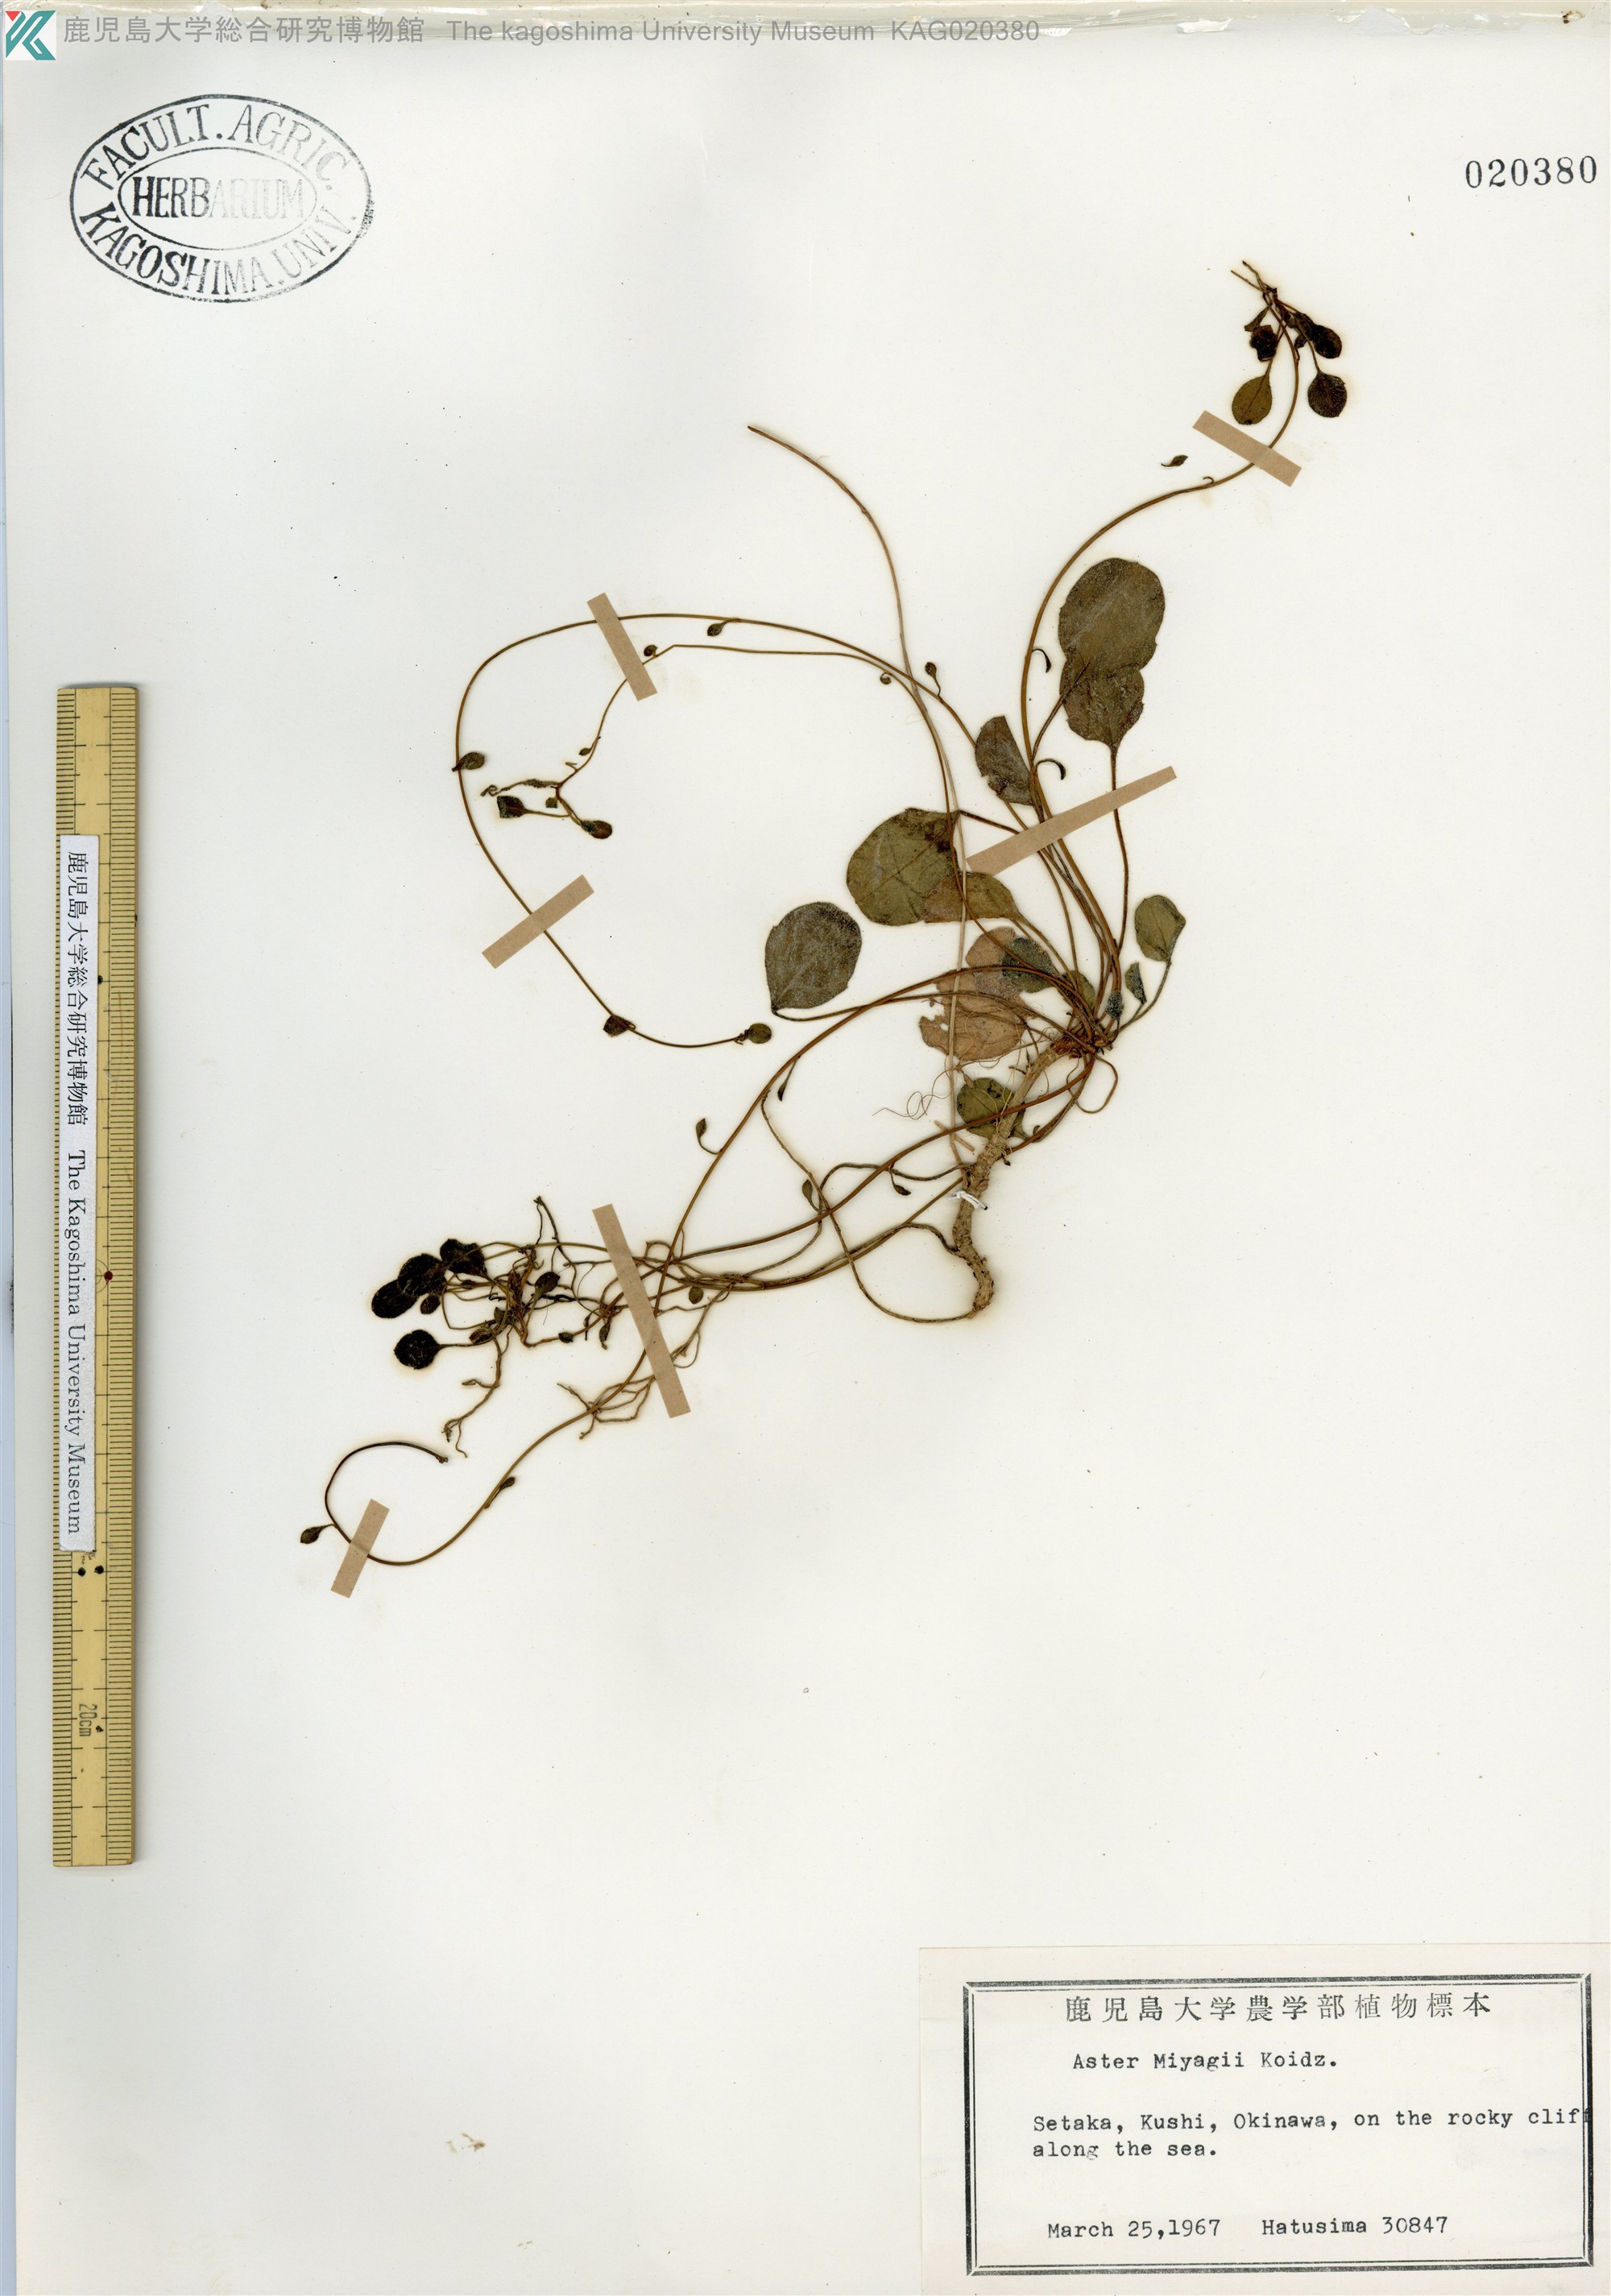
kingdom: Plantae
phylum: Tracheophyta
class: Magnoliopsida
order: Asterales
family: Asteraceae
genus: Aster
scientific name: Aster miyagii
